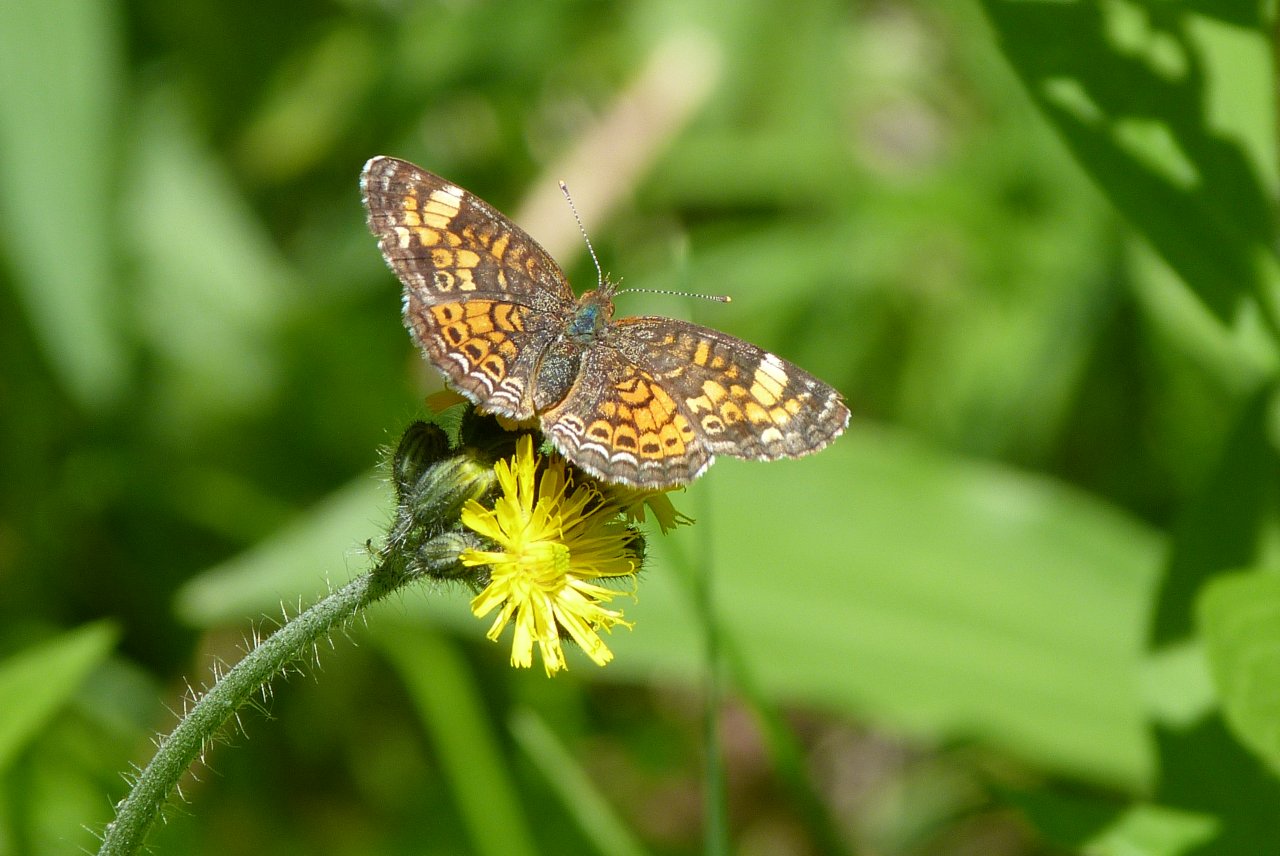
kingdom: Animalia
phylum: Arthropoda
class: Insecta
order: Lepidoptera
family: Nymphalidae
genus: Phyciodes
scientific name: Phyciodes
